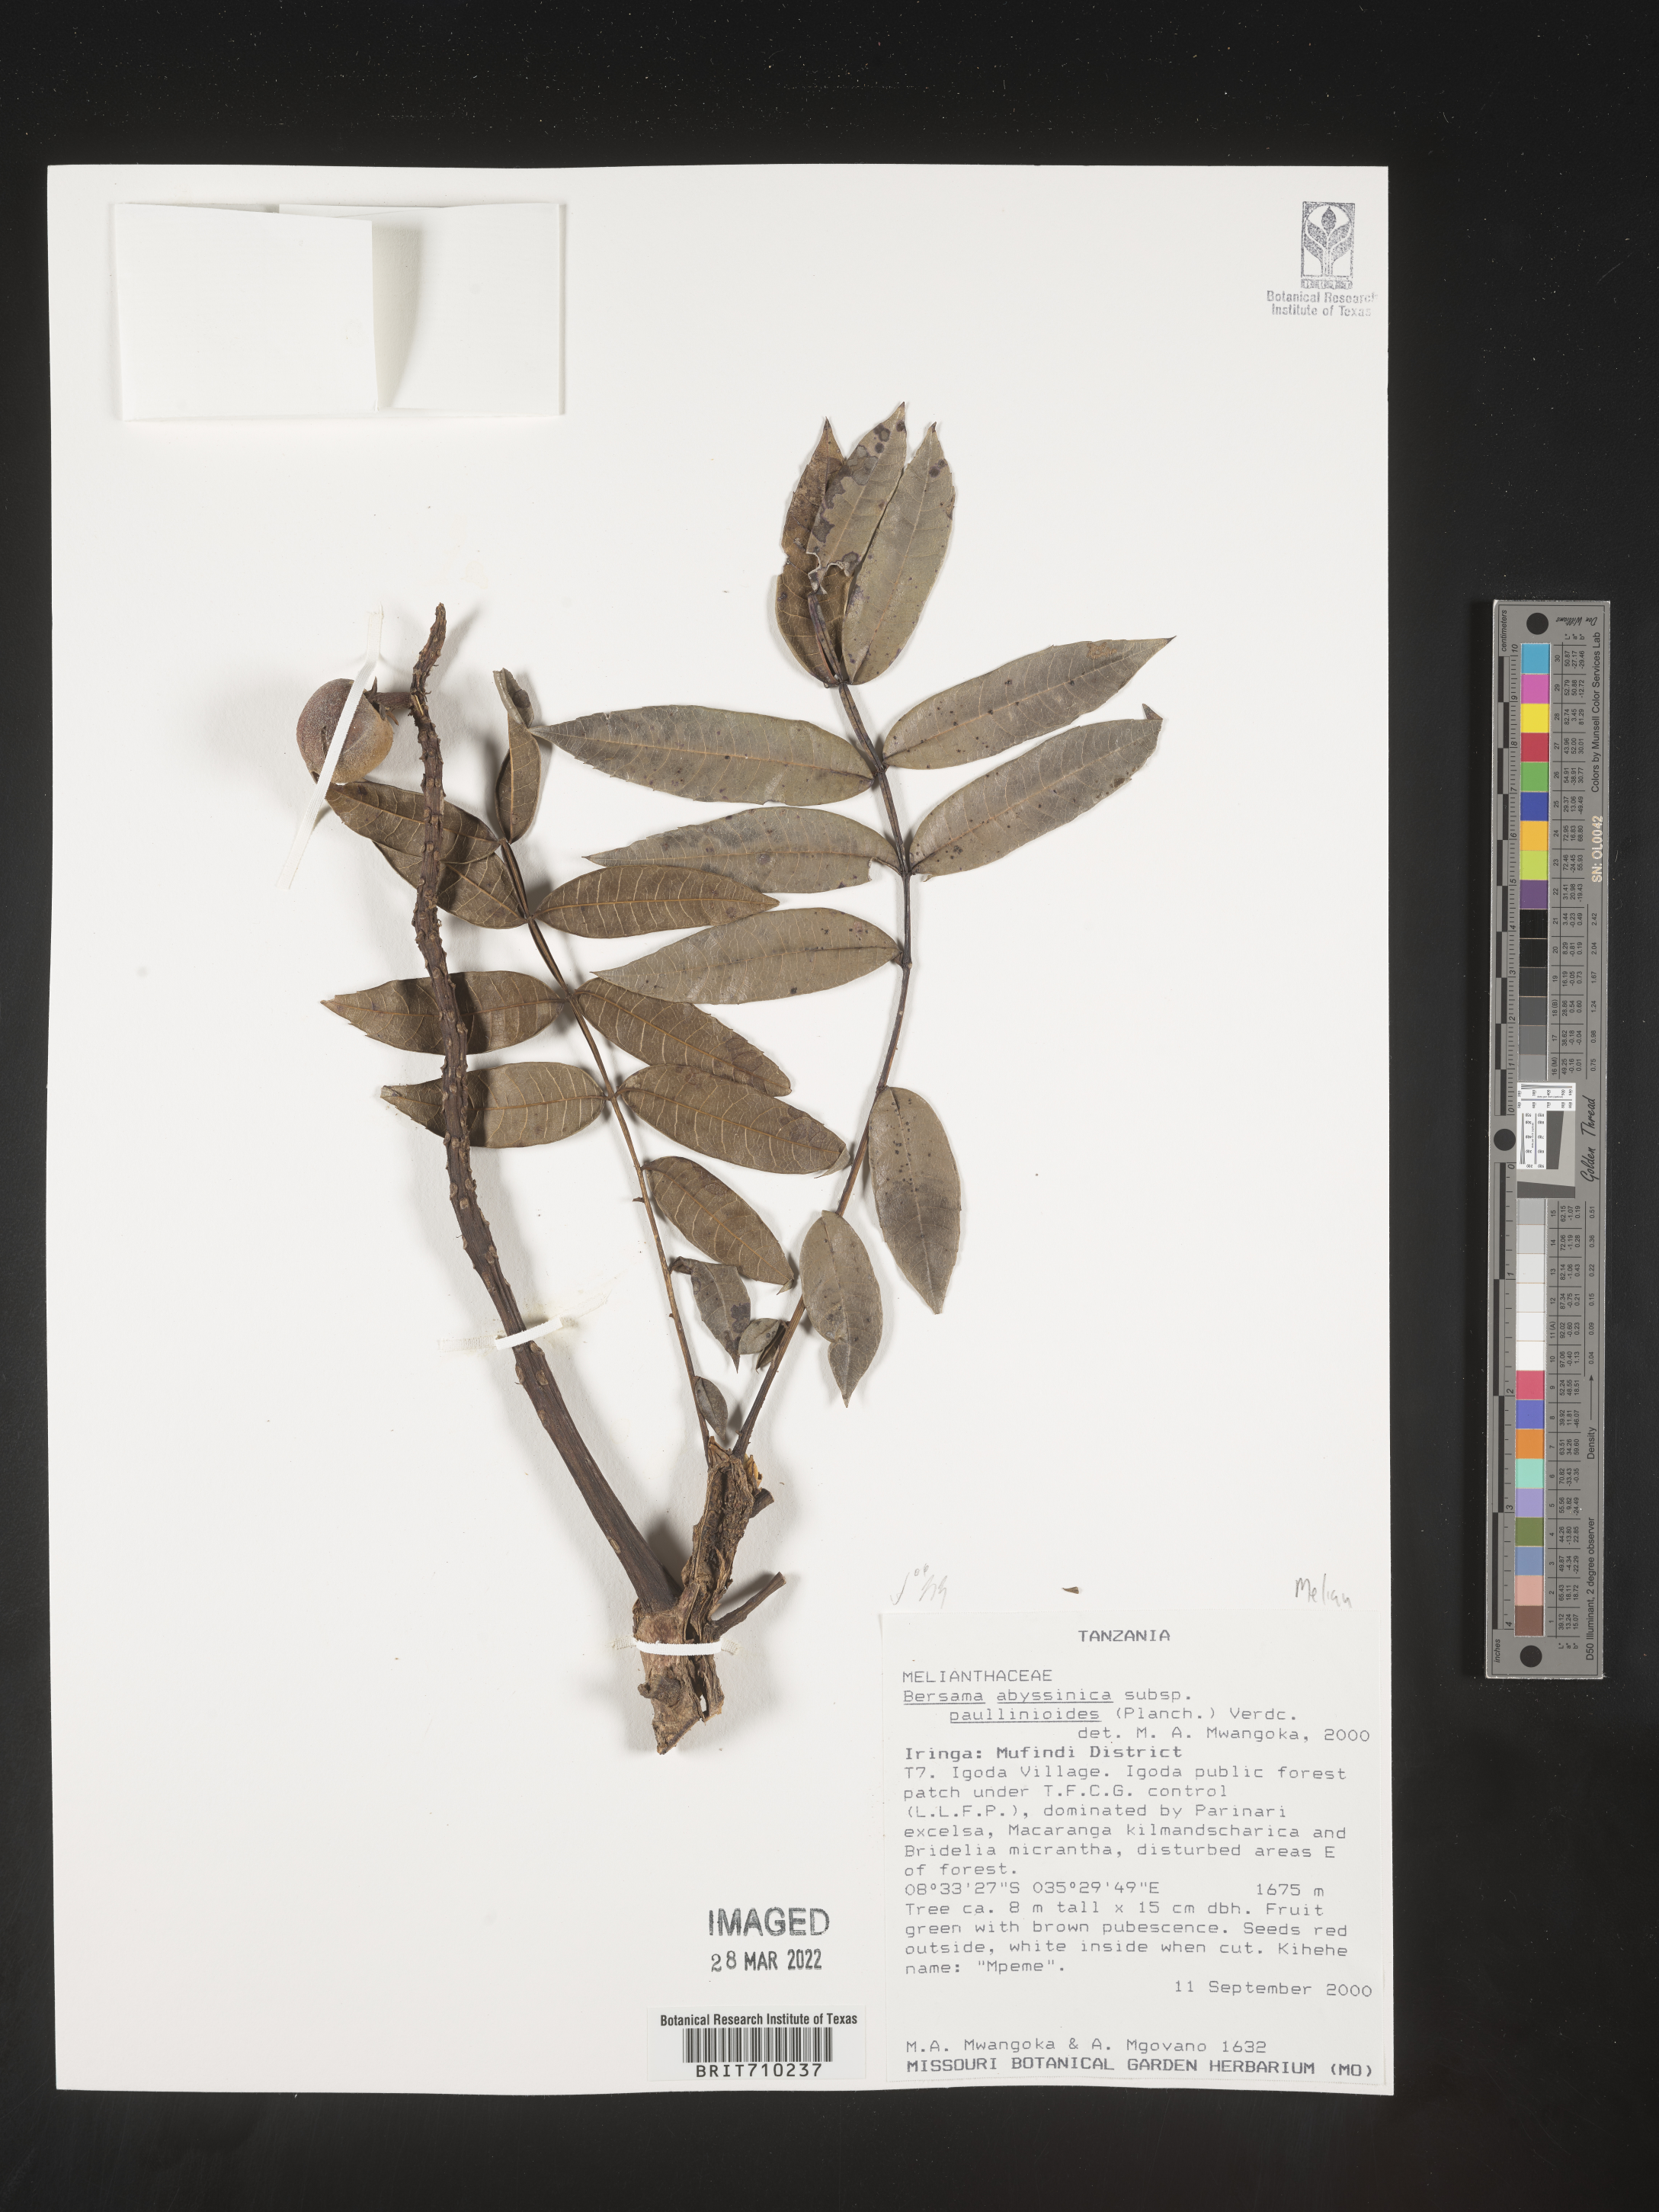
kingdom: Plantae
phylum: Tracheophyta
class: Magnoliopsida
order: Geraniales
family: Melianthaceae
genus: Bersama
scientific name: Bersama
